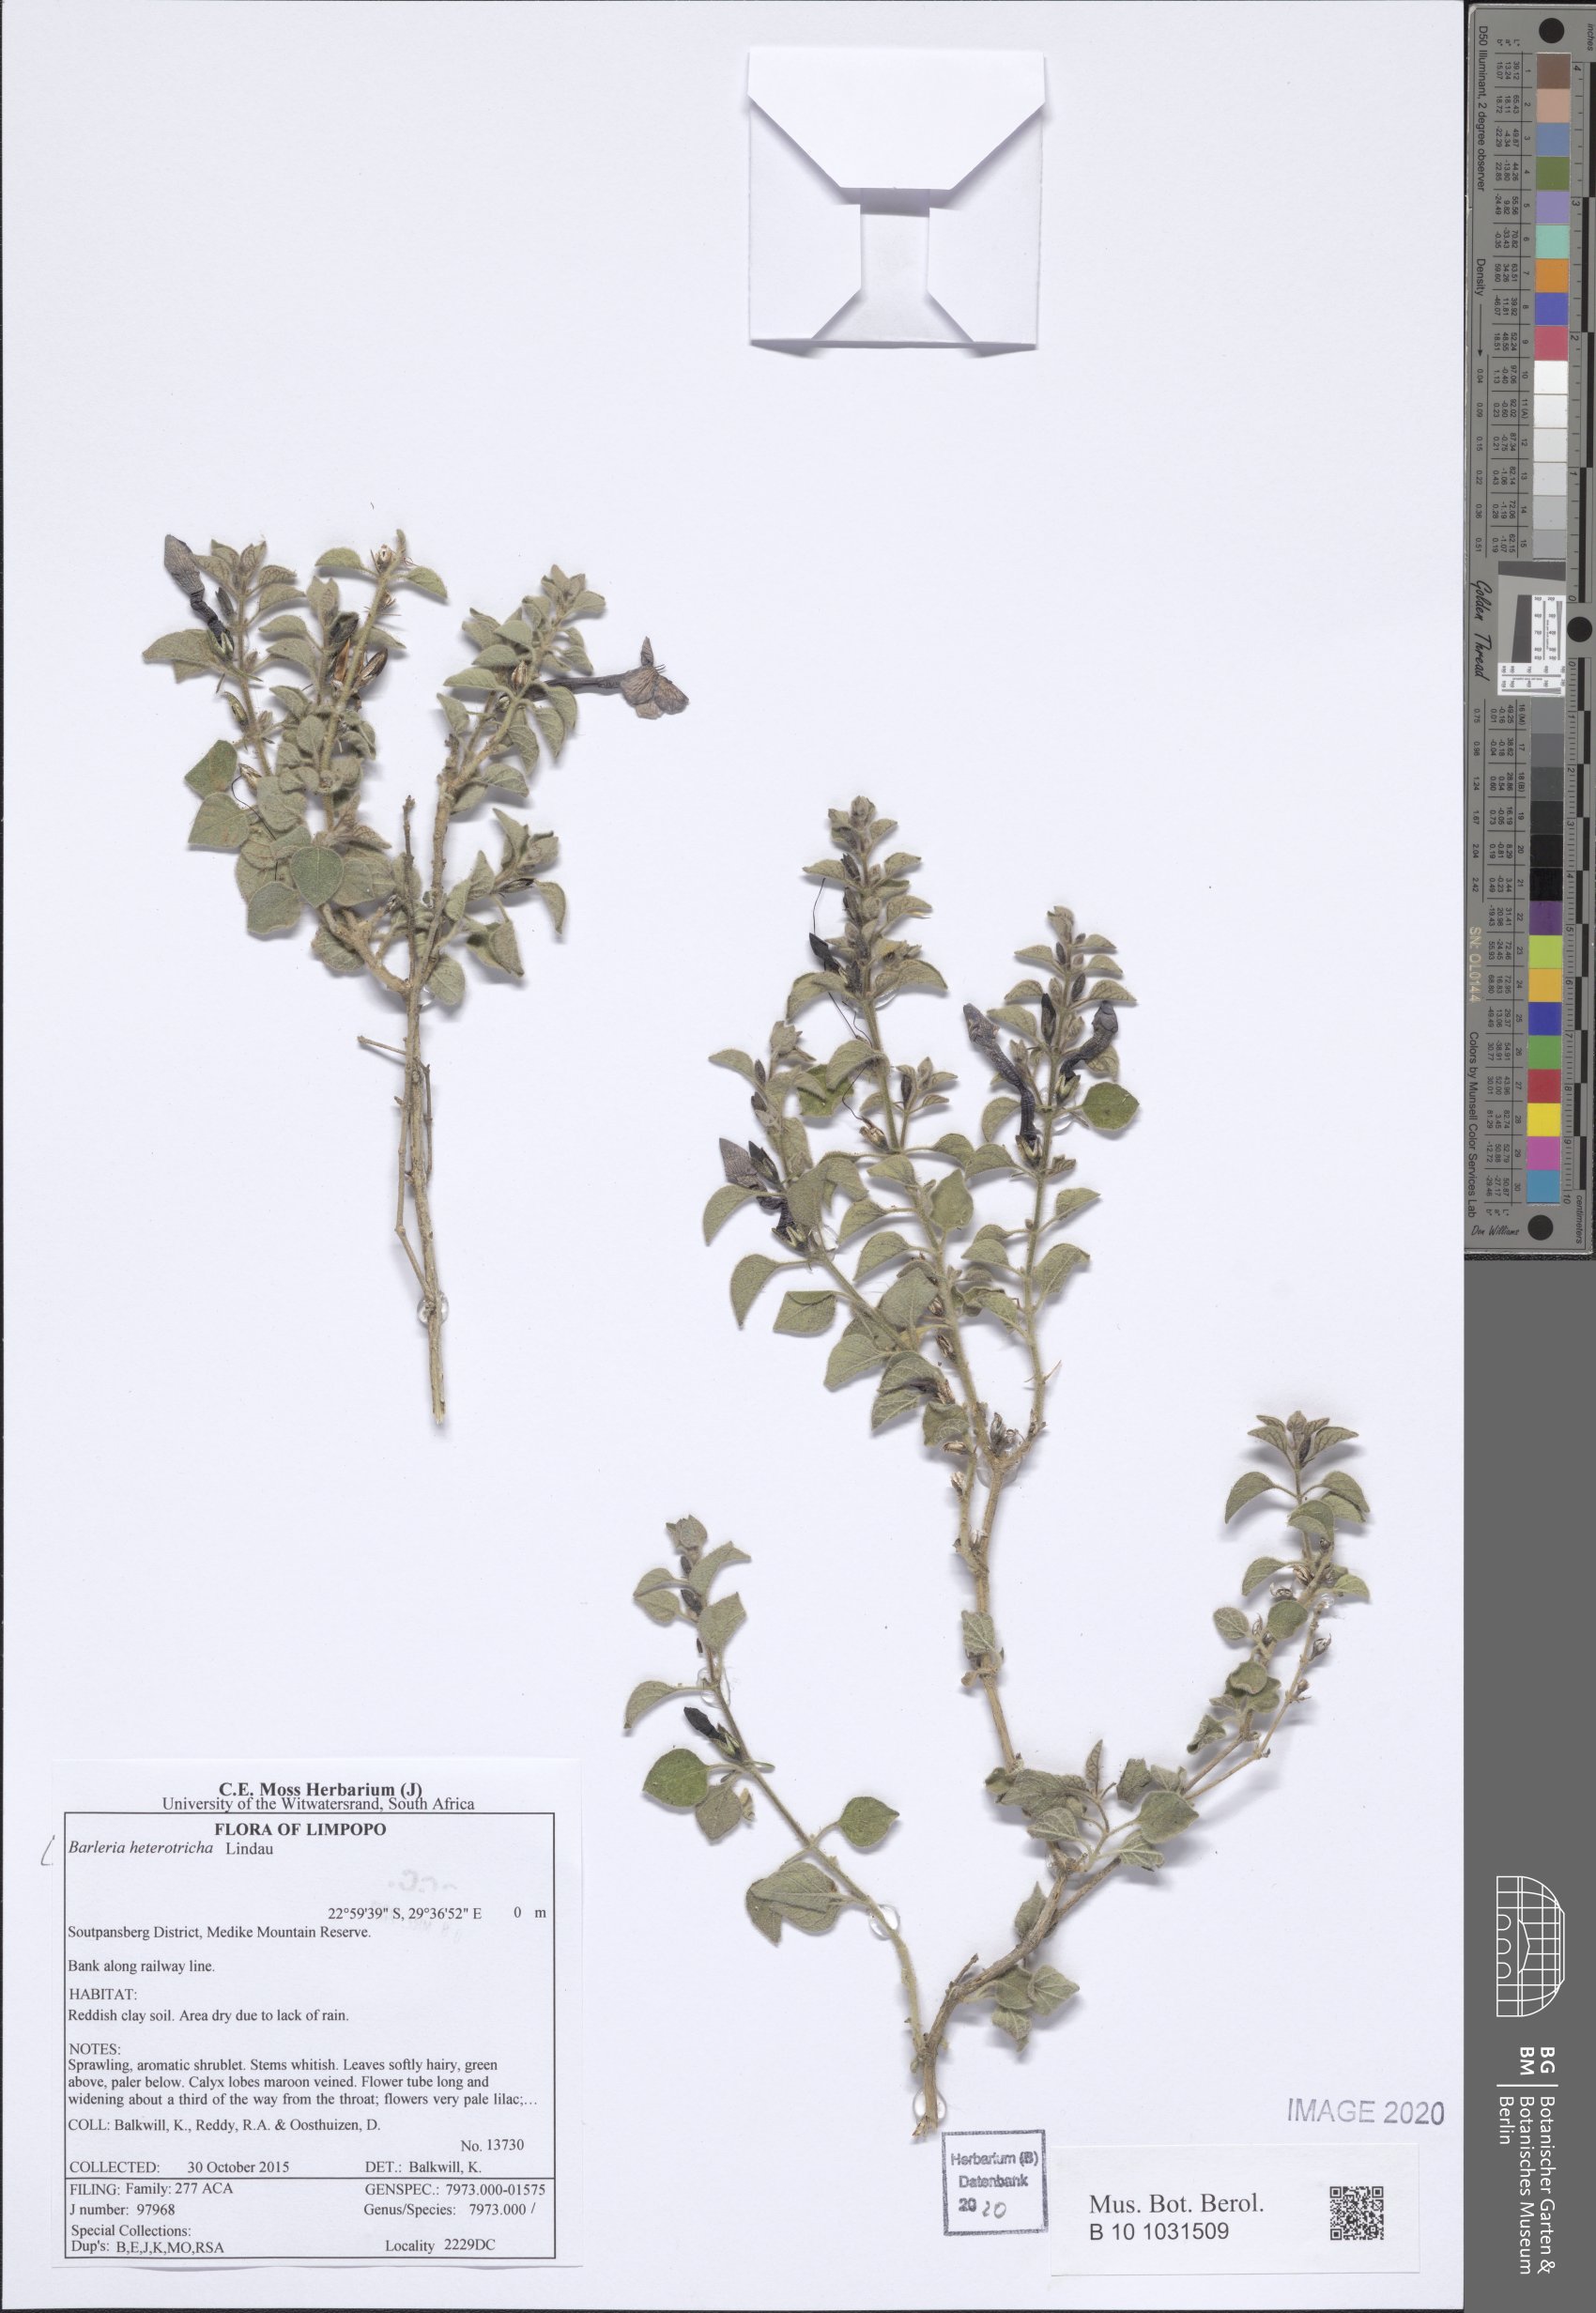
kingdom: Plantae
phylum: Tracheophyta
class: Magnoliopsida
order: Lamiales
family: Acanthaceae
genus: Barleria
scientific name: Barleria heterotricha
